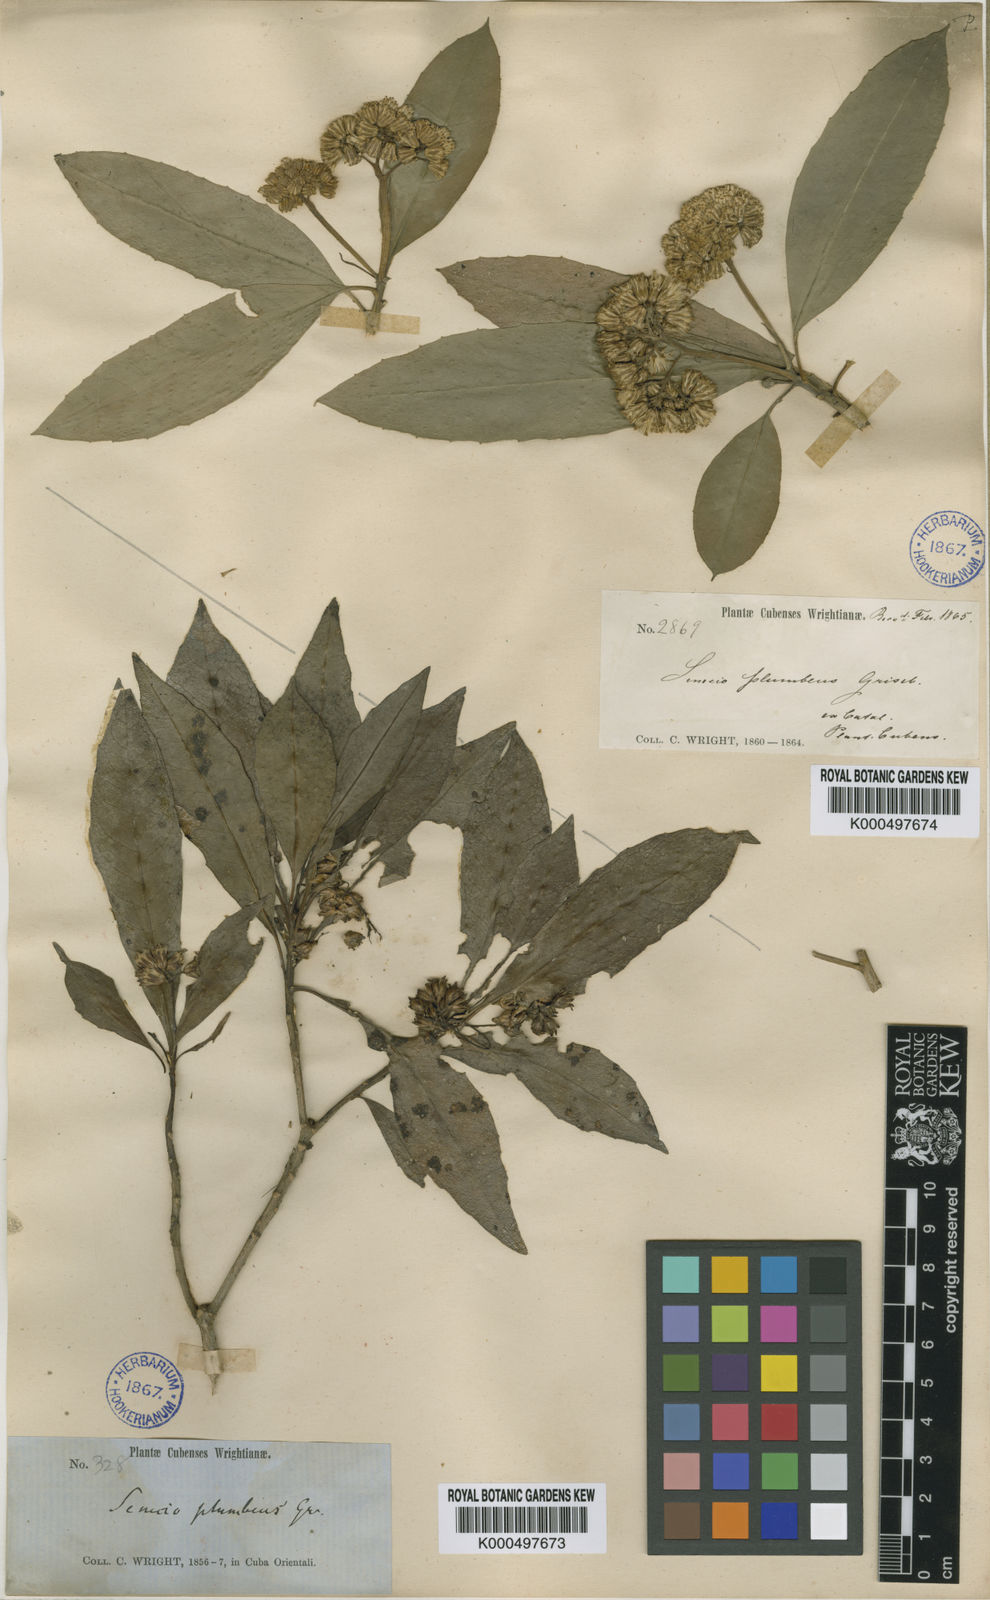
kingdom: Plantae
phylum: Tracheophyta
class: Magnoliopsida
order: Asterales
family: Asteraceae
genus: Lundinia
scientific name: Lundinia plumbea
